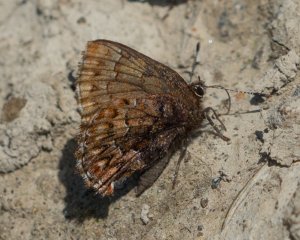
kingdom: Animalia
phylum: Arthropoda
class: Insecta
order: Lepidoptera
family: Lycaenidae
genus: Incisalia
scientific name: Incisalia eryphon
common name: Western Pine Elfin
